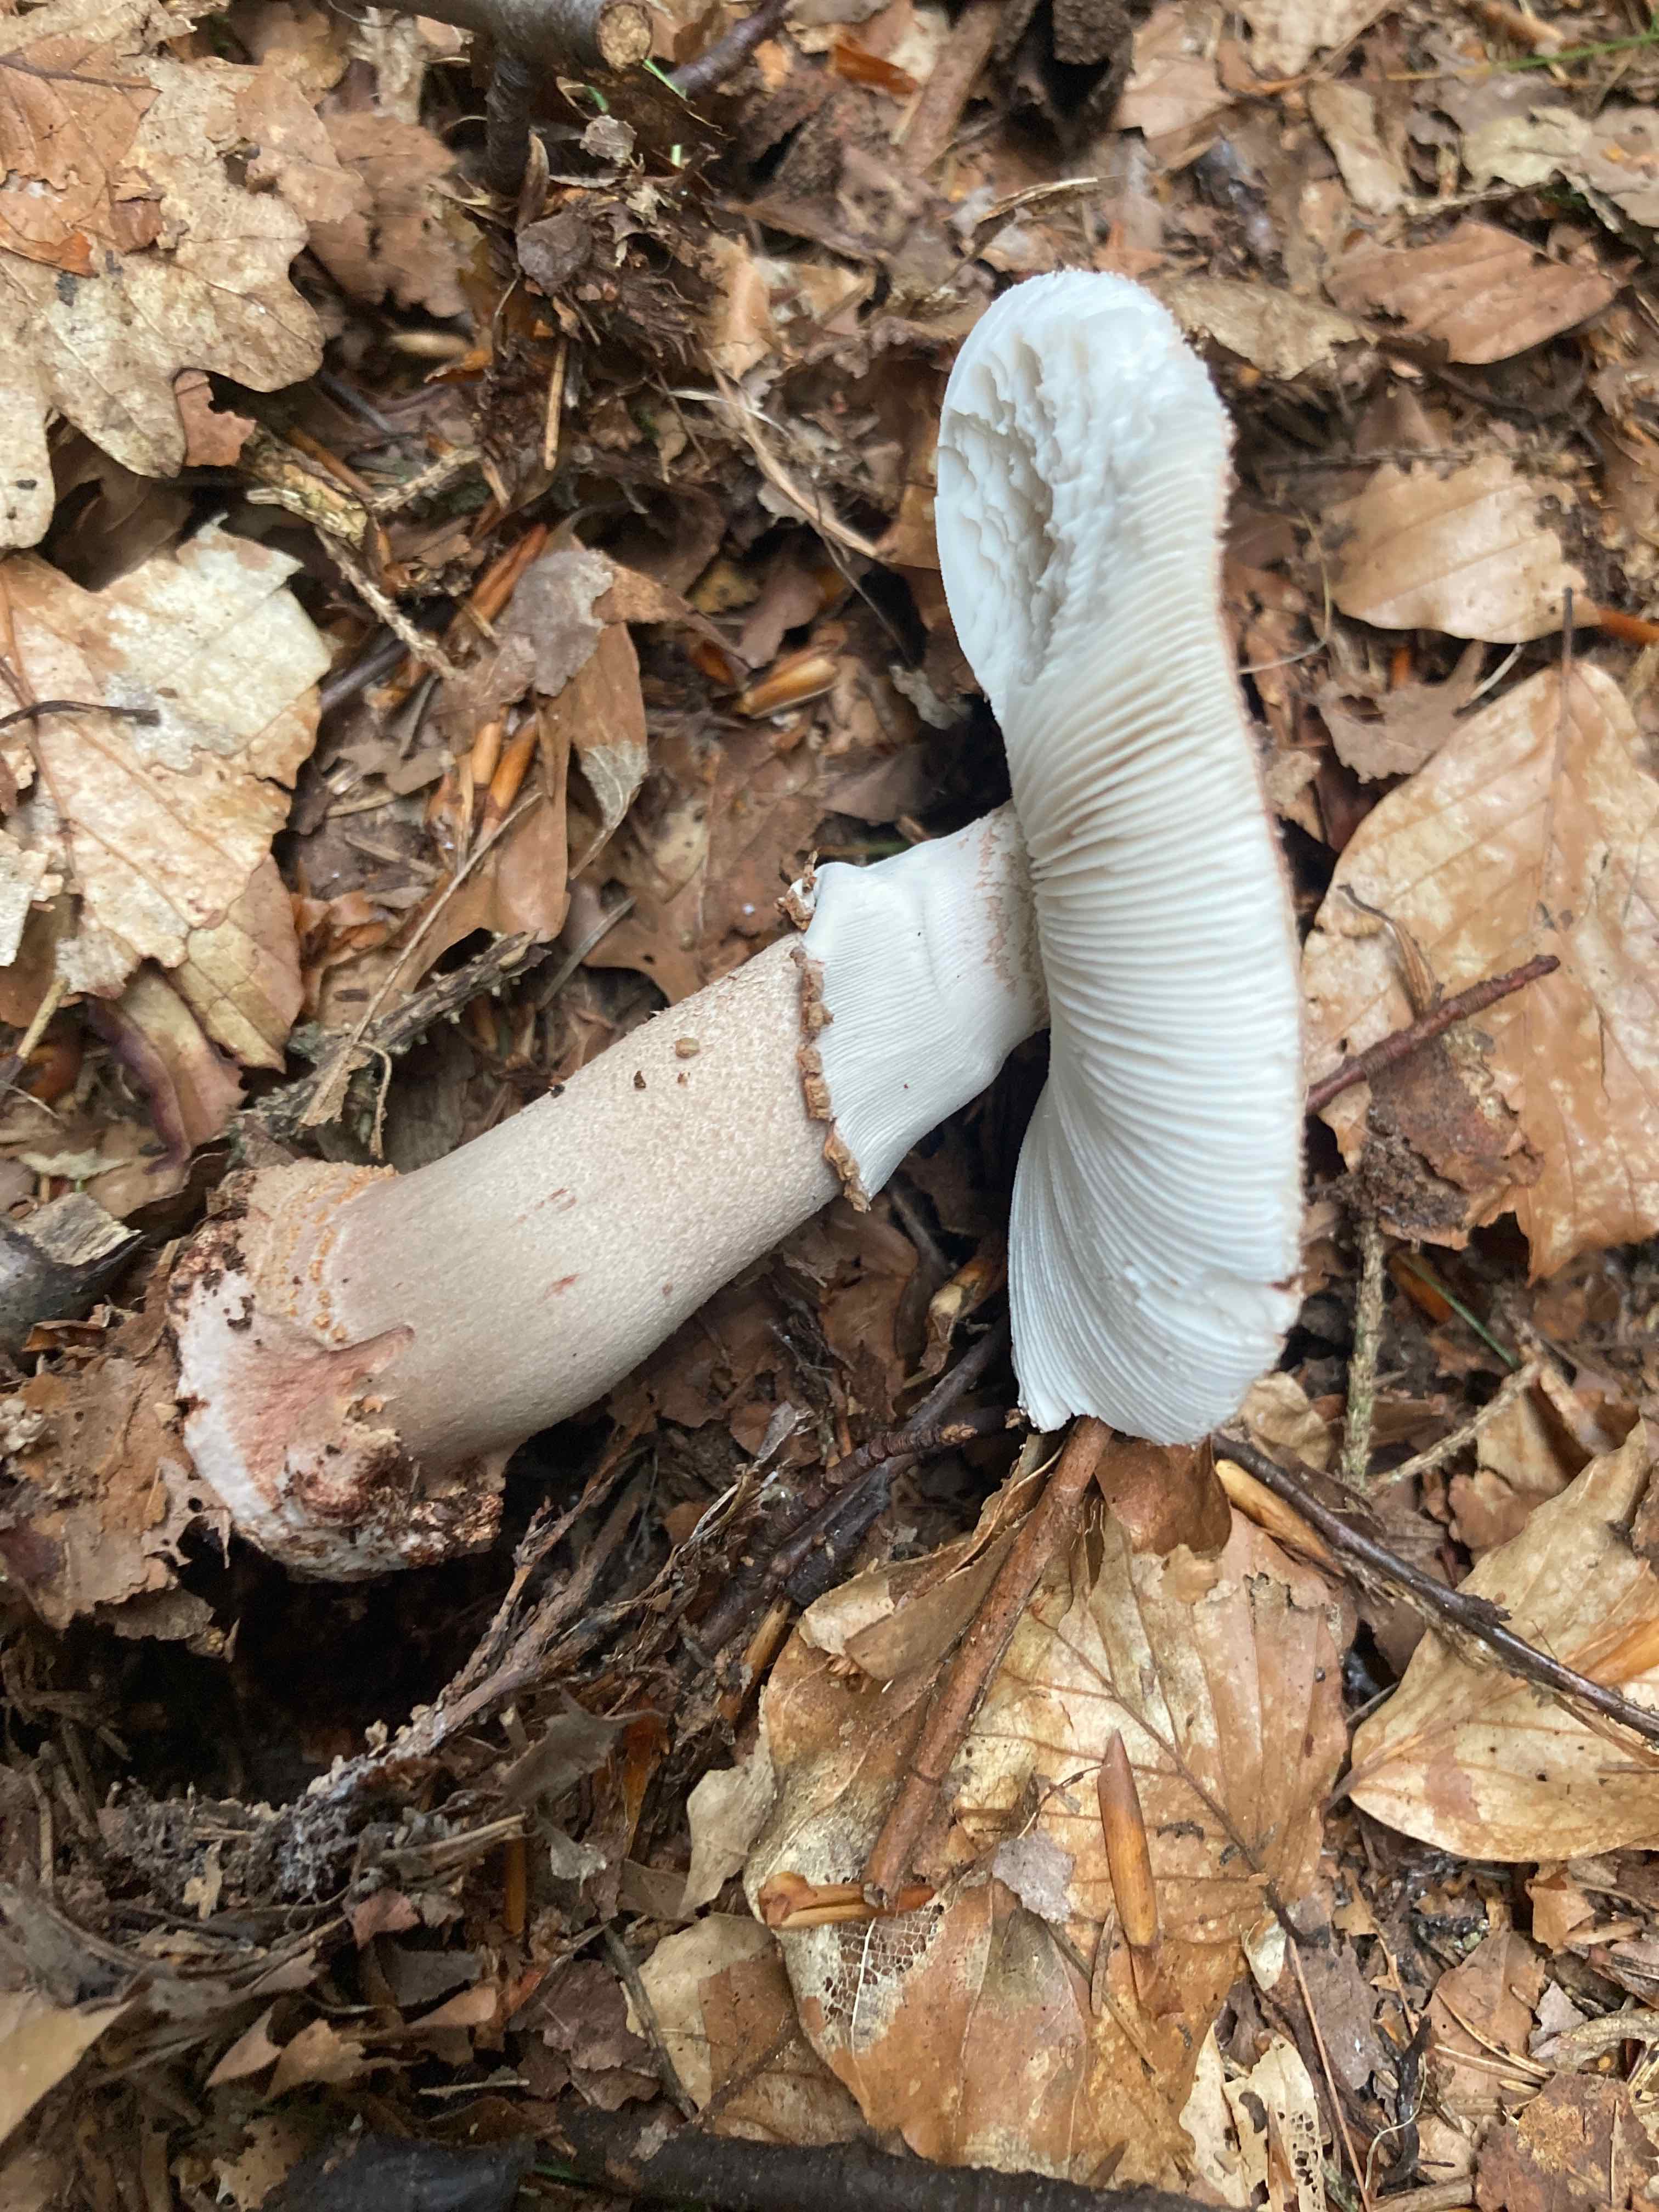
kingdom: Fungi
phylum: Basidiomycota
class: Agaricomycetes
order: Agaricales
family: Amanitaceae
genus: Amanita
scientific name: Amanita rubescens
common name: rødmende fluesvamp
